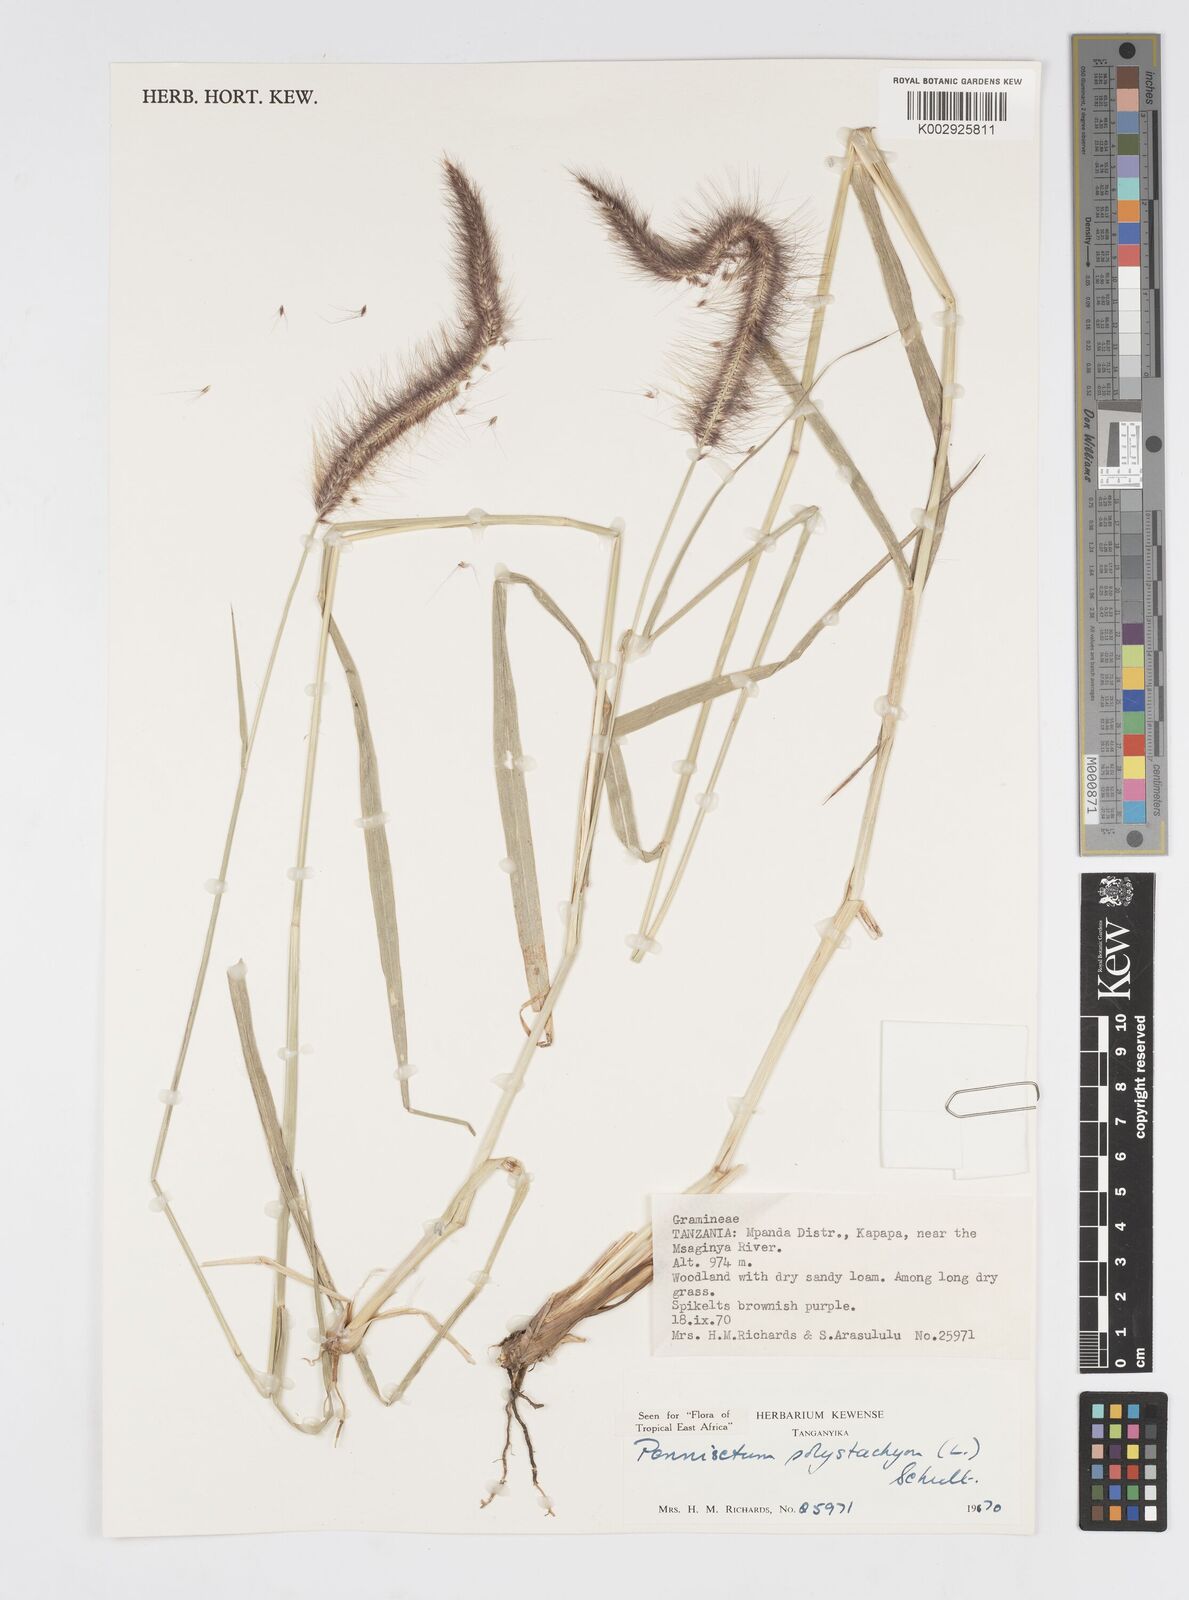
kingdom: Plantae
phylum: Tracheophyta
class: Liliopsida
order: Poales
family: Poaceae
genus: Setaria
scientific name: Setaria parviflora
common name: Knotroot bristle-grass
